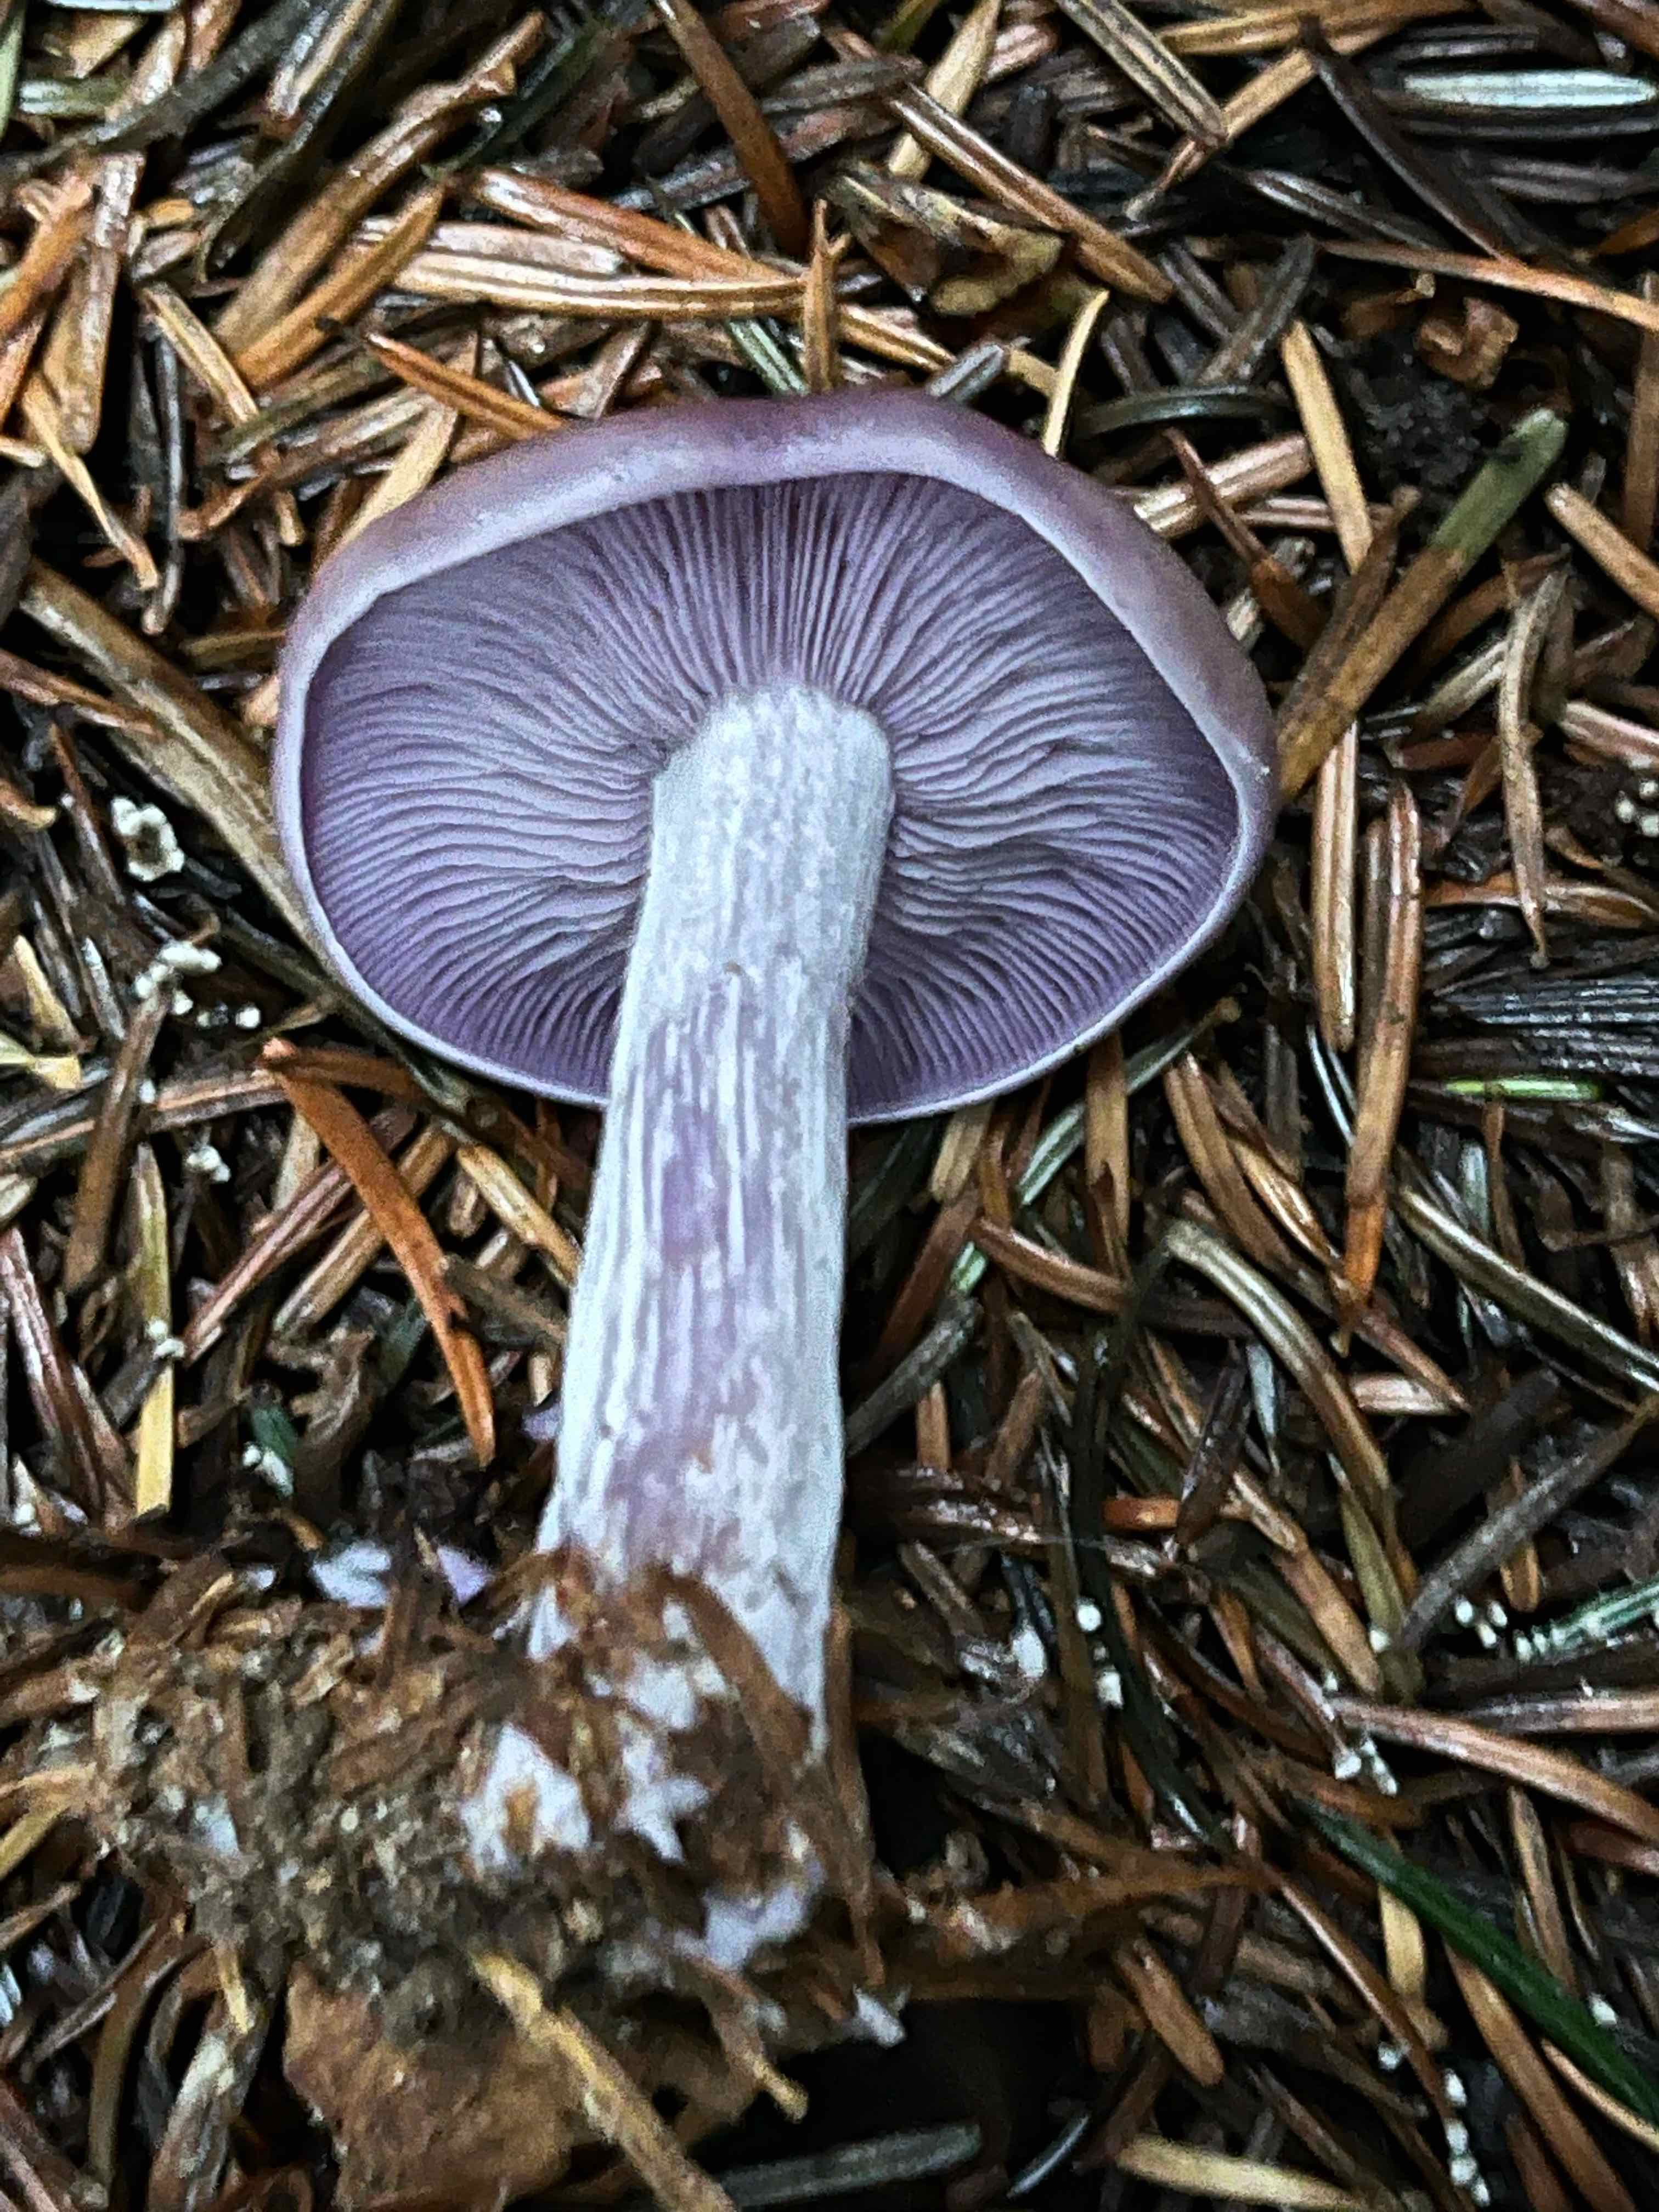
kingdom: Fungi
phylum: Basidiomycota
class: Agaricomycetes
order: Agaricales
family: Tricholomataceae
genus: Lepista
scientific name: Lepista nuda
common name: violet hekseringshat
